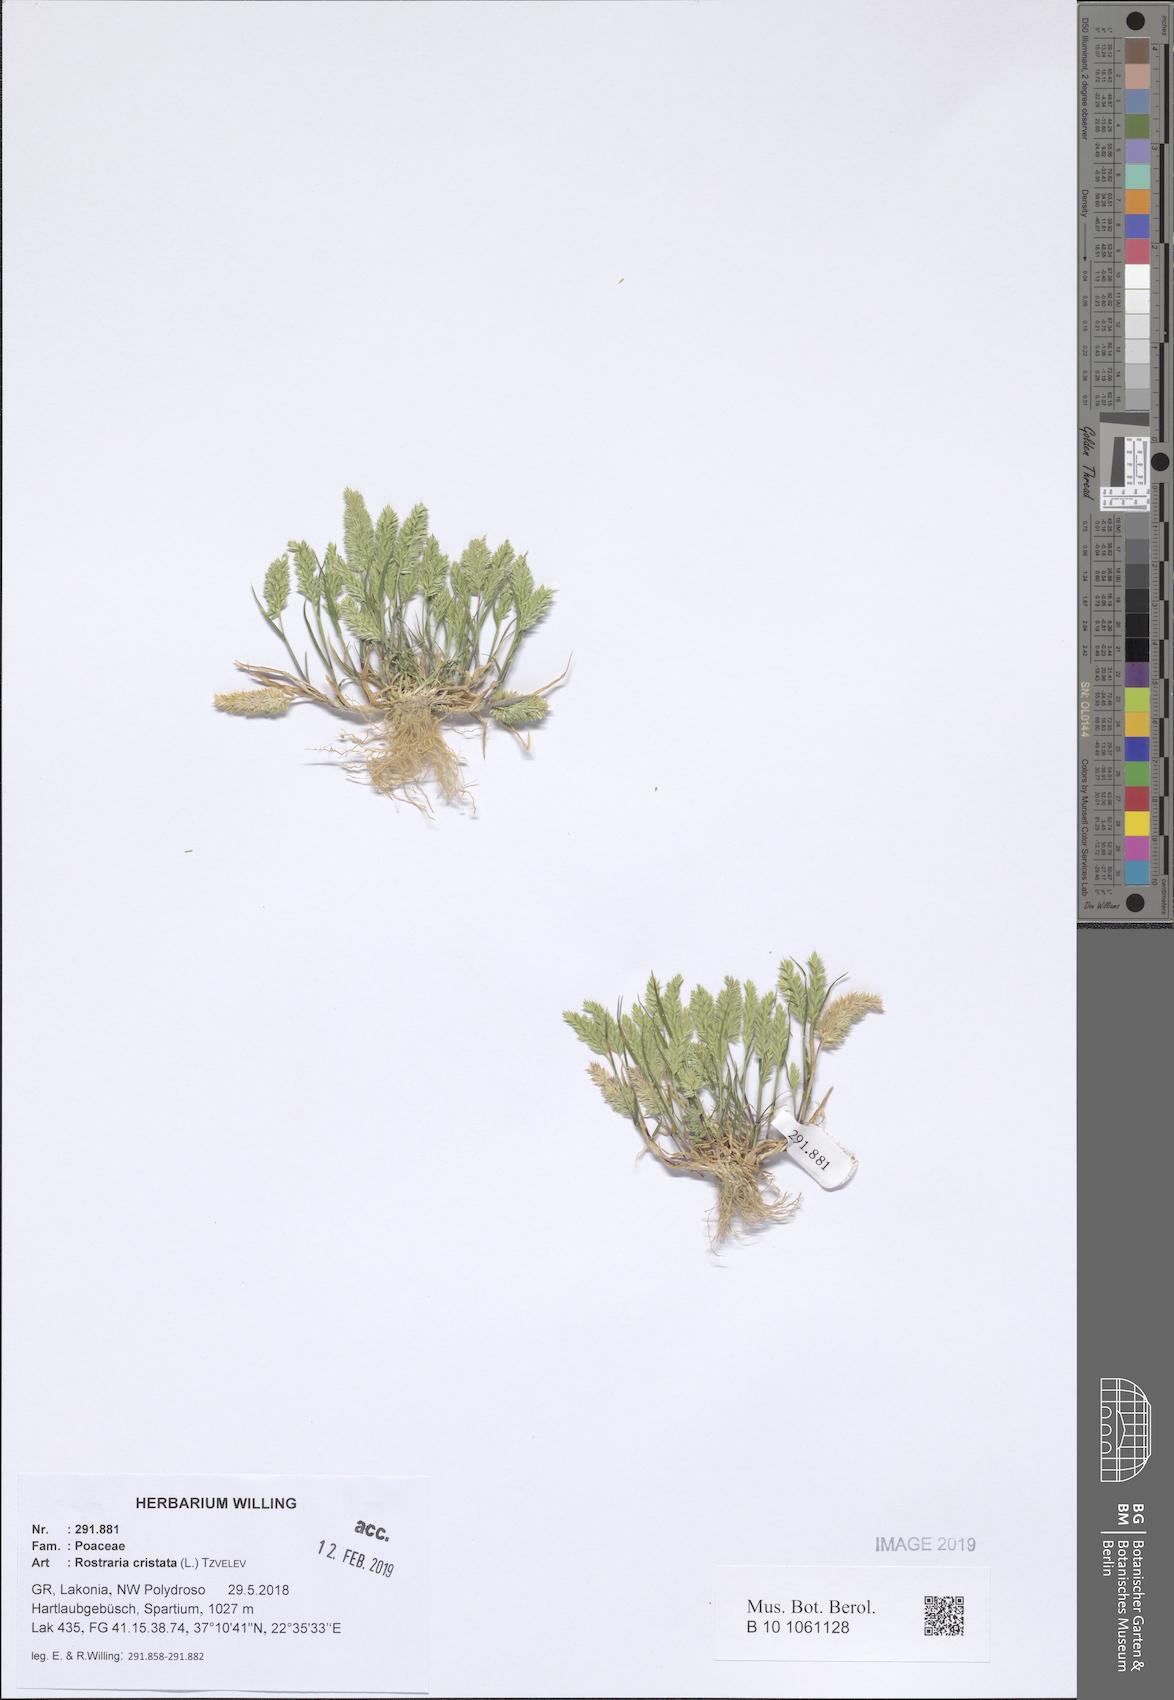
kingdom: Plantae
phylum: Tracheophyta
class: Liliopsida
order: Poales
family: Poaceae
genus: Rostraria
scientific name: Rostraria cristata
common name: Mediterranean hair-grass
